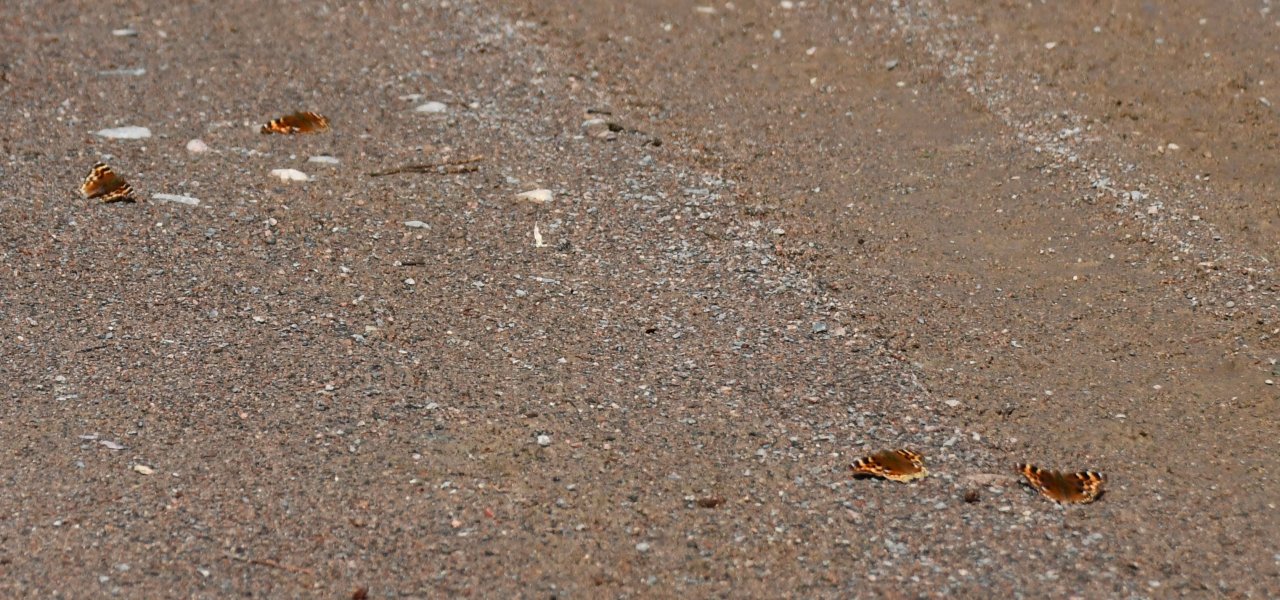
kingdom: Animalia
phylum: Arthropoda
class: Insecta
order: Lepidoptera
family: Nymphalidae
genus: Polygonia
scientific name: Polygonia vaualbum
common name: Compton Tortoiseshell
